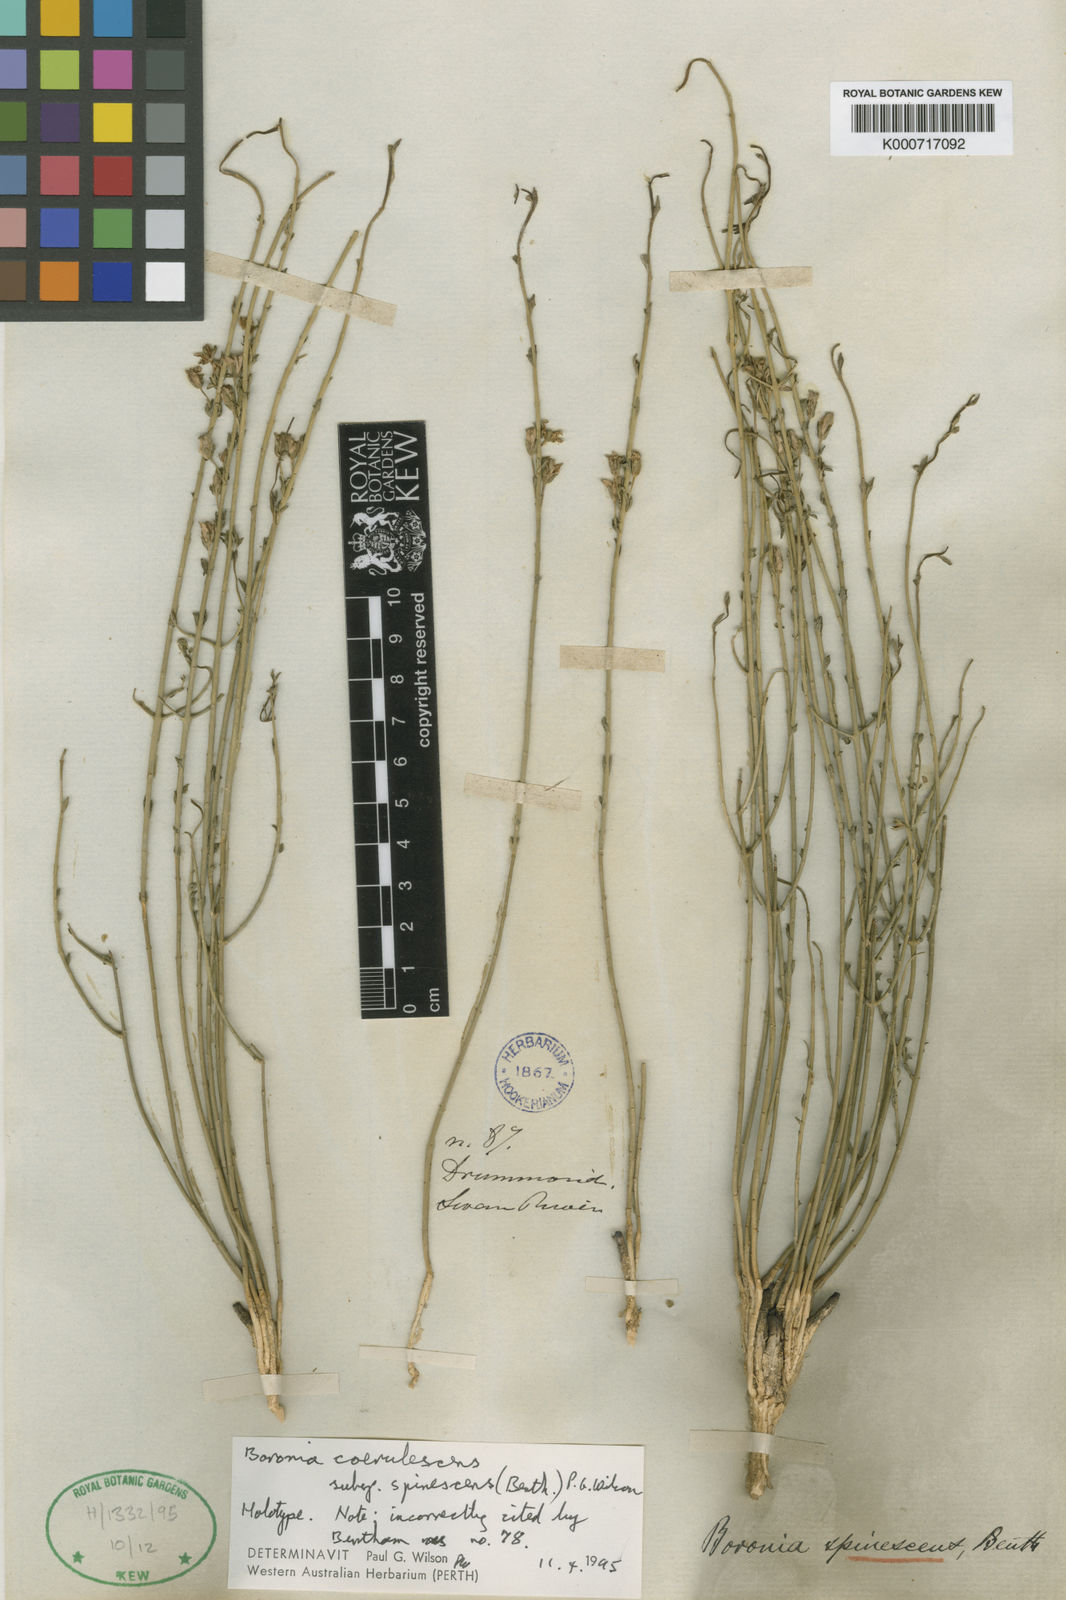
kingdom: Plantae
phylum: Tracheophyta
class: Magnoliopsida
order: Sapindales
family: Rutaceae
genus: Cyanothamnus
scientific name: Cyanothamnus coerulescens
